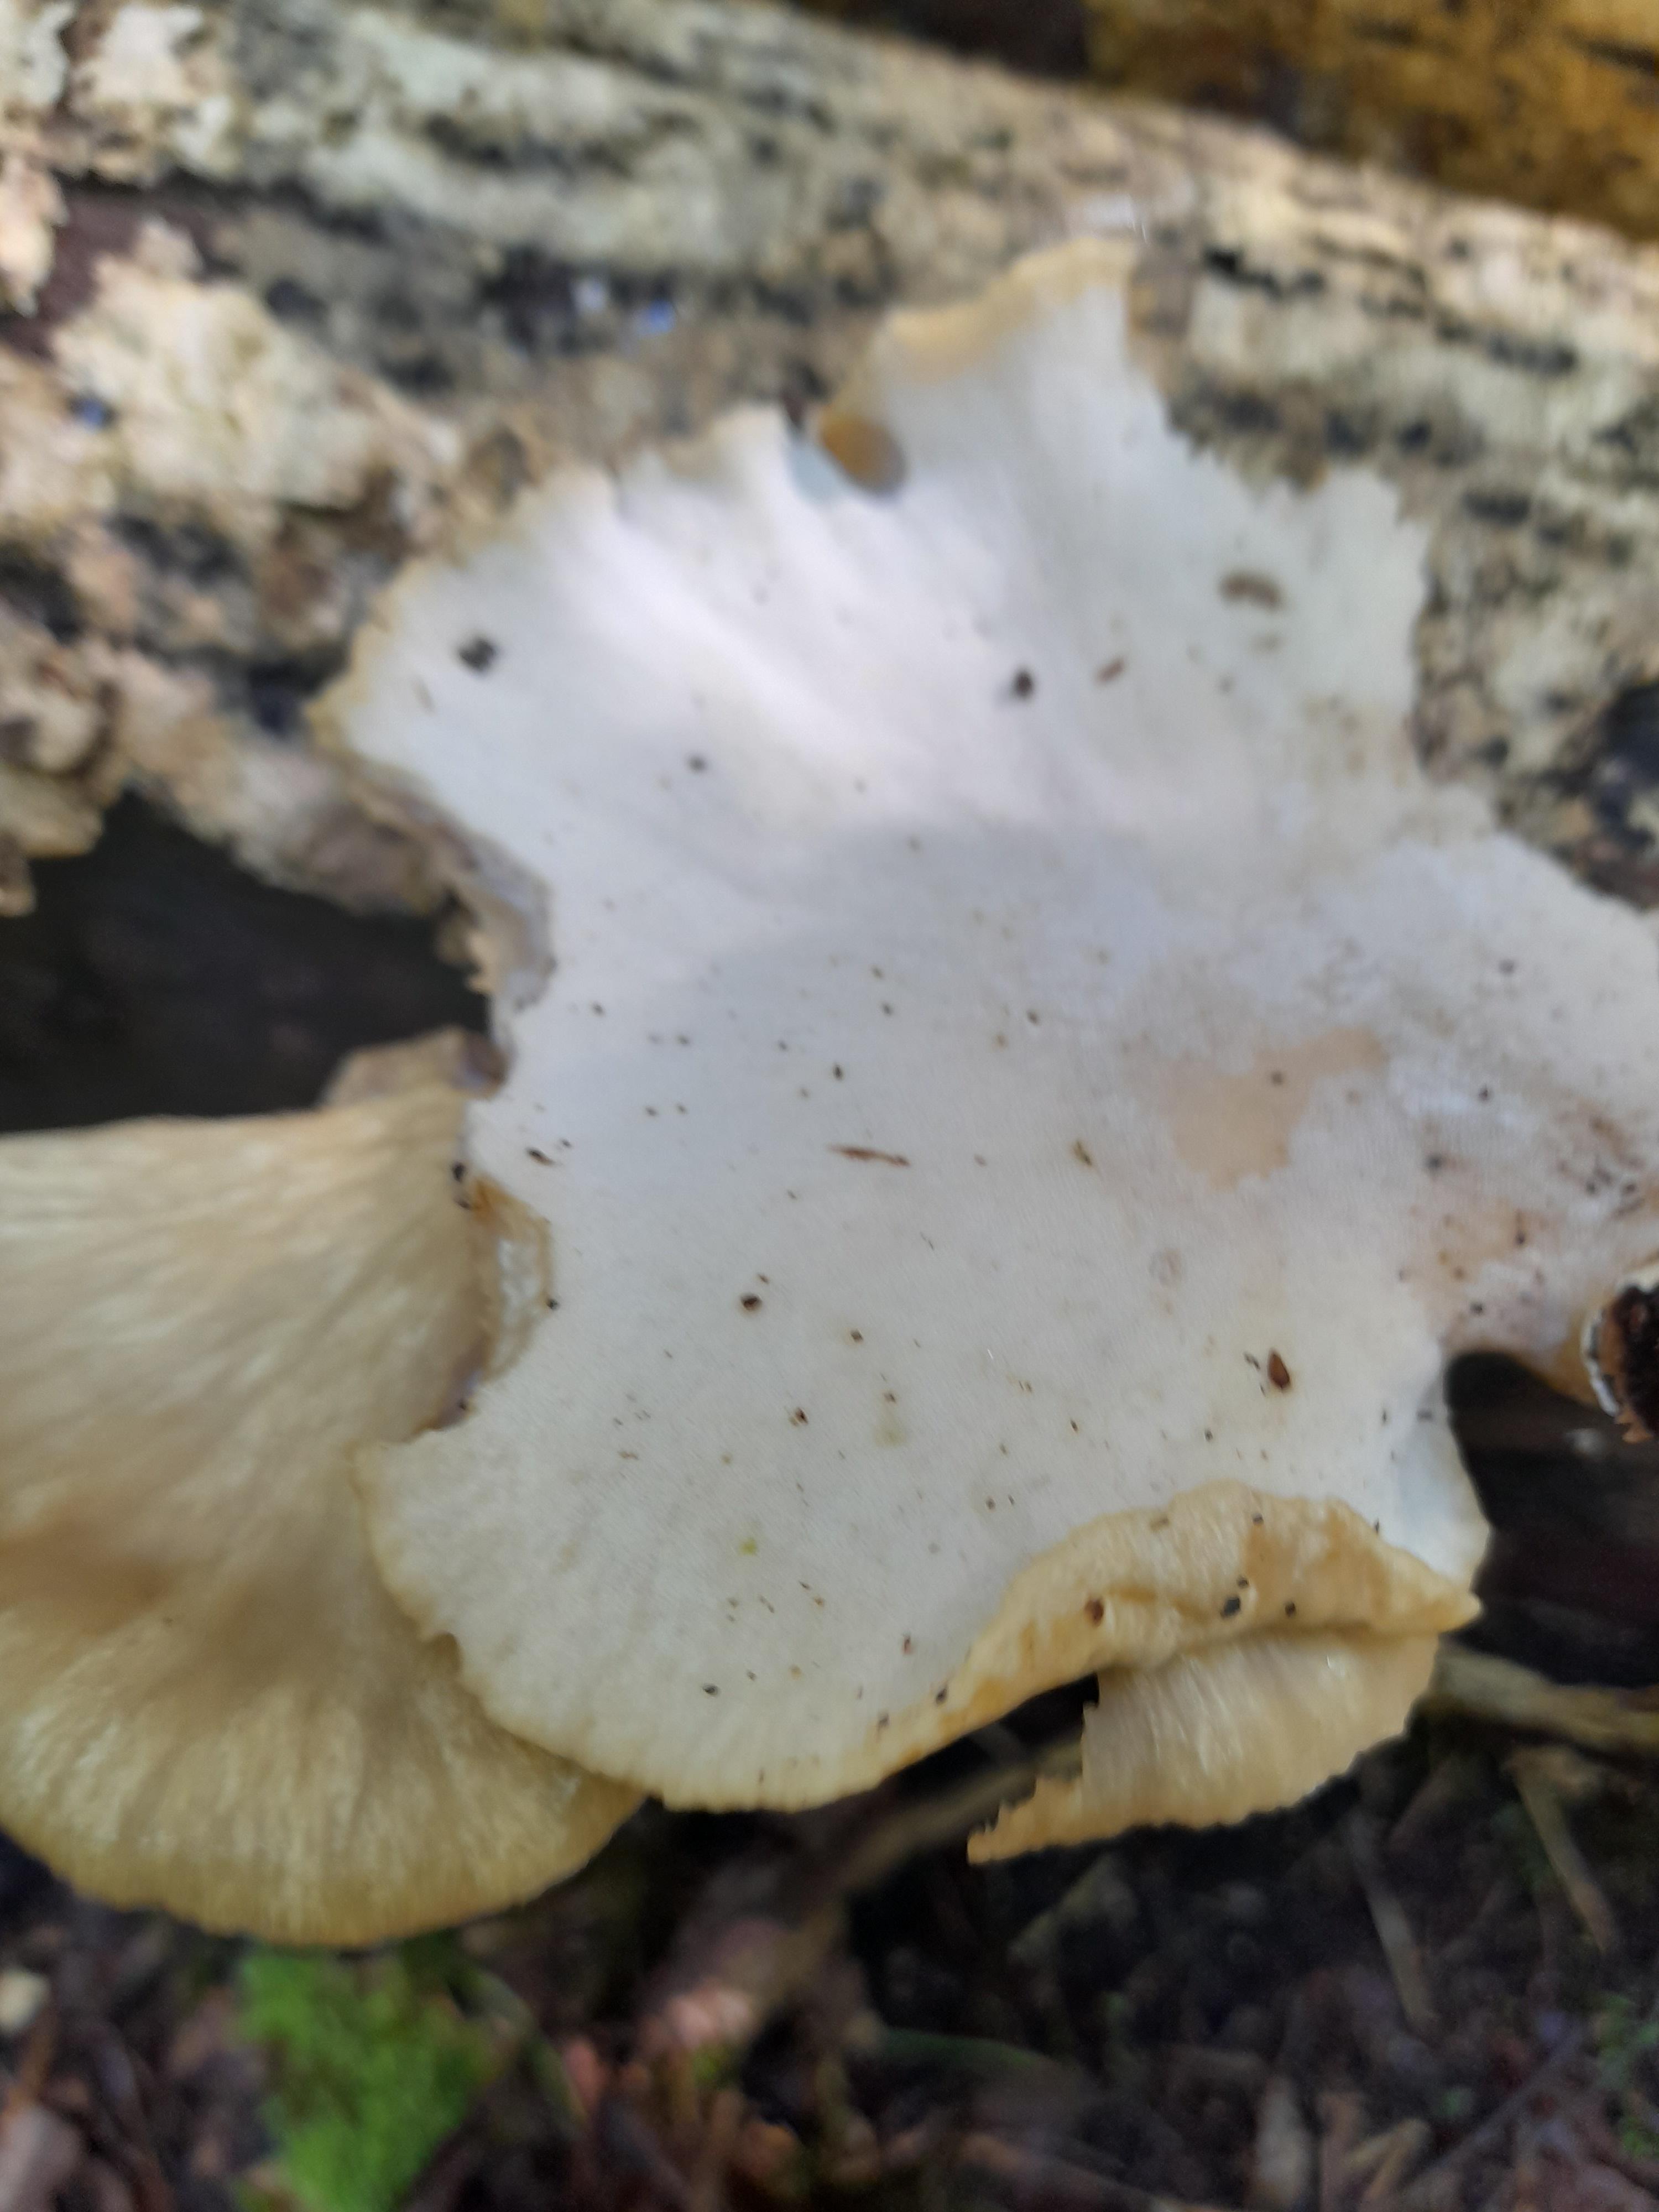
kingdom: Fungi
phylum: Basidiomycota
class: Agaricomycetes
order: Polyporales
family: Polyporaceae
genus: Cerioporus
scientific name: Cerioporus varius
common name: foranderlig stilkporesvamp
